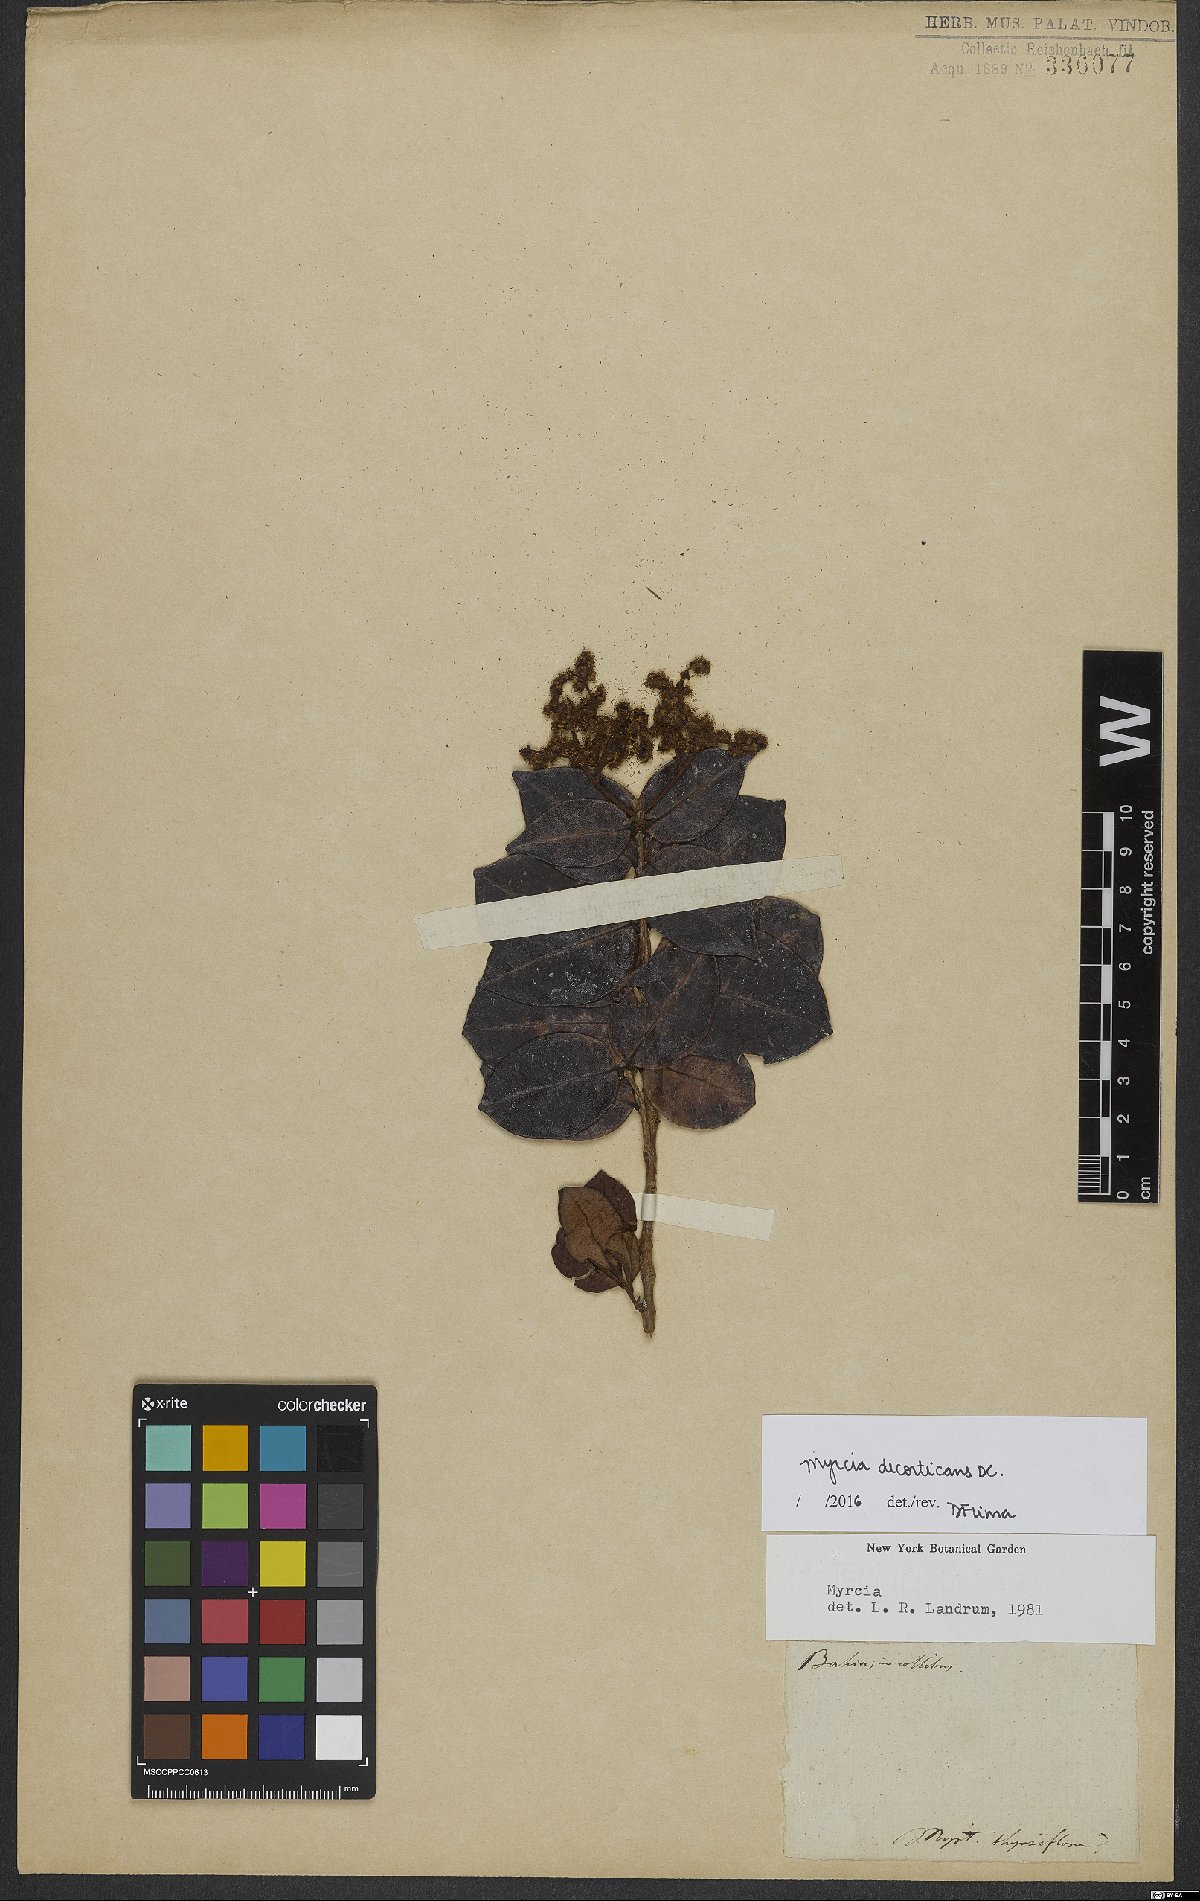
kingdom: Plantae
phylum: Tracheophyta
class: Magnoliopsida
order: Myrtales
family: Myrtaceae
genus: Myrcia
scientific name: Myrcia decorticans
